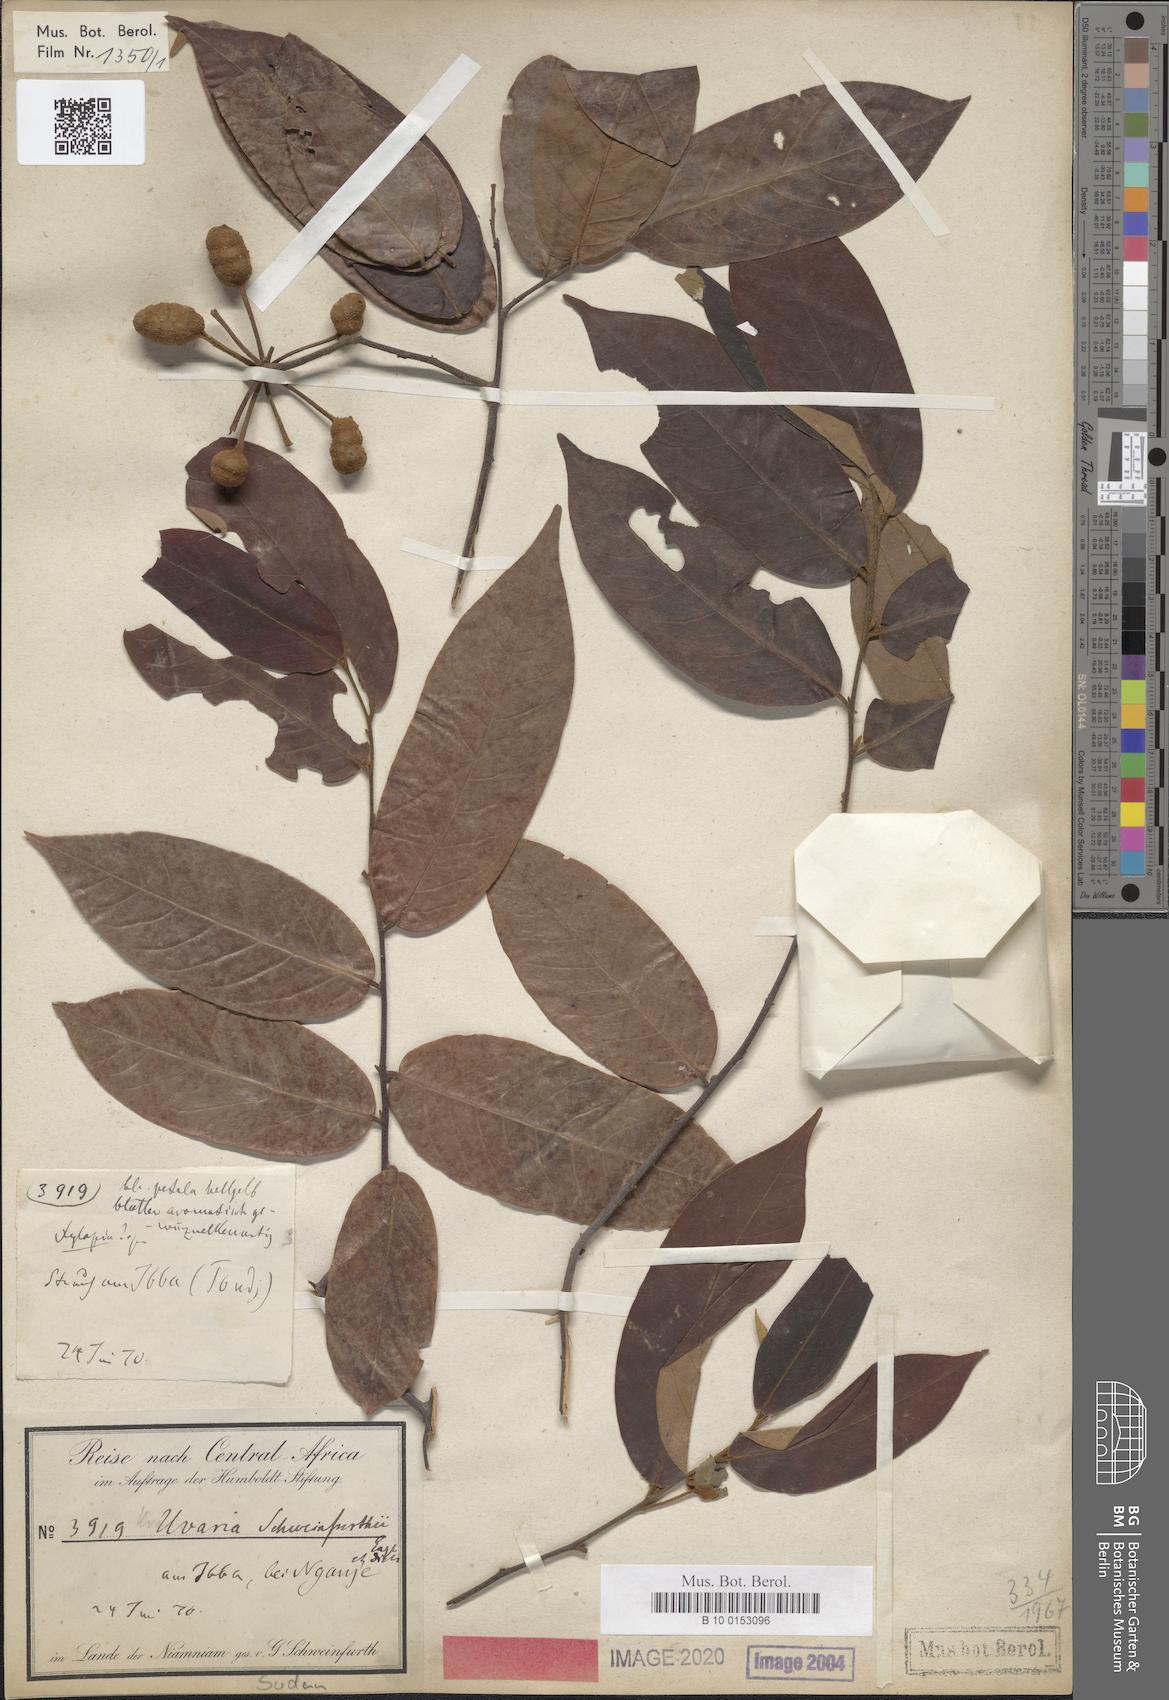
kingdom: Plantae
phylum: Tracheophyta
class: Magnoliopsida
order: Magnoliales
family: Annonaceae
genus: Uvaria
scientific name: Uvaria schweinfurthii
